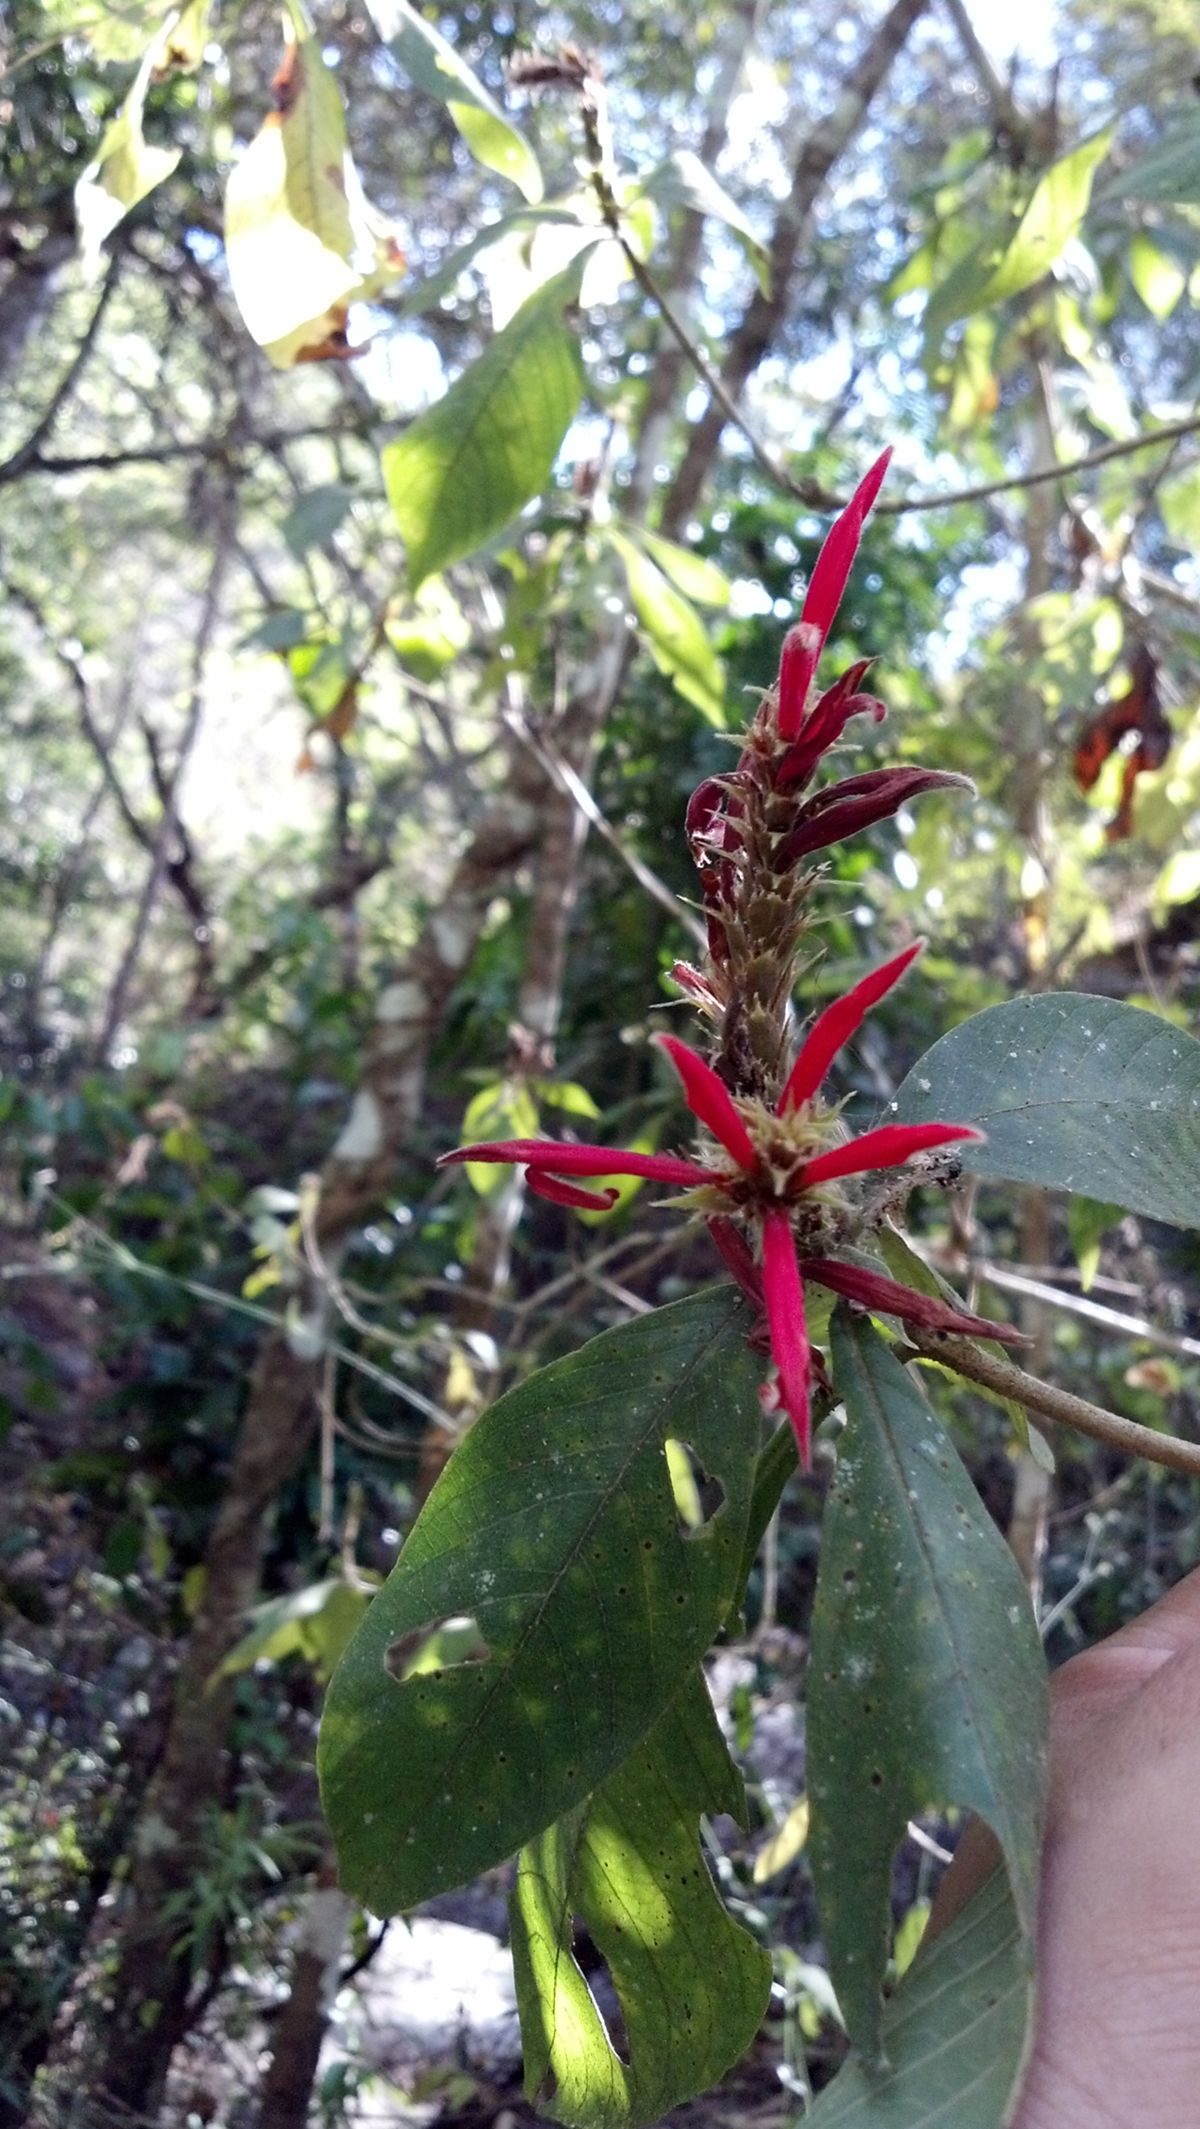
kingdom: Plantae
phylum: Tracheophyta
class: Magnoliopsida
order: Lamiales
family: Acanthaceae
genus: Aphelandra
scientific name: Aphelandra scabra
